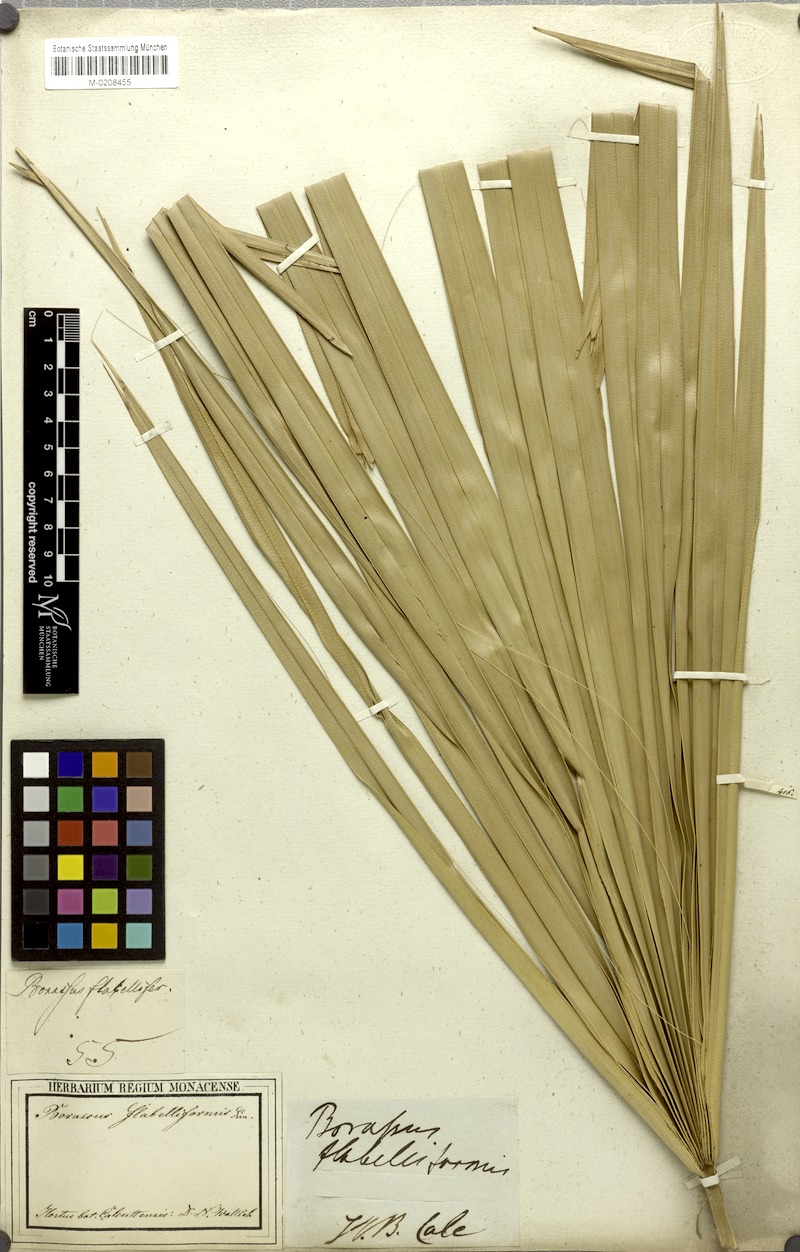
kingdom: Plantae
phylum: Tracheophyta
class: Liliopsida
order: Arecales
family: Arecaceae
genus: Borassus
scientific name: Borassus flabellifer
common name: Palmyra palm
